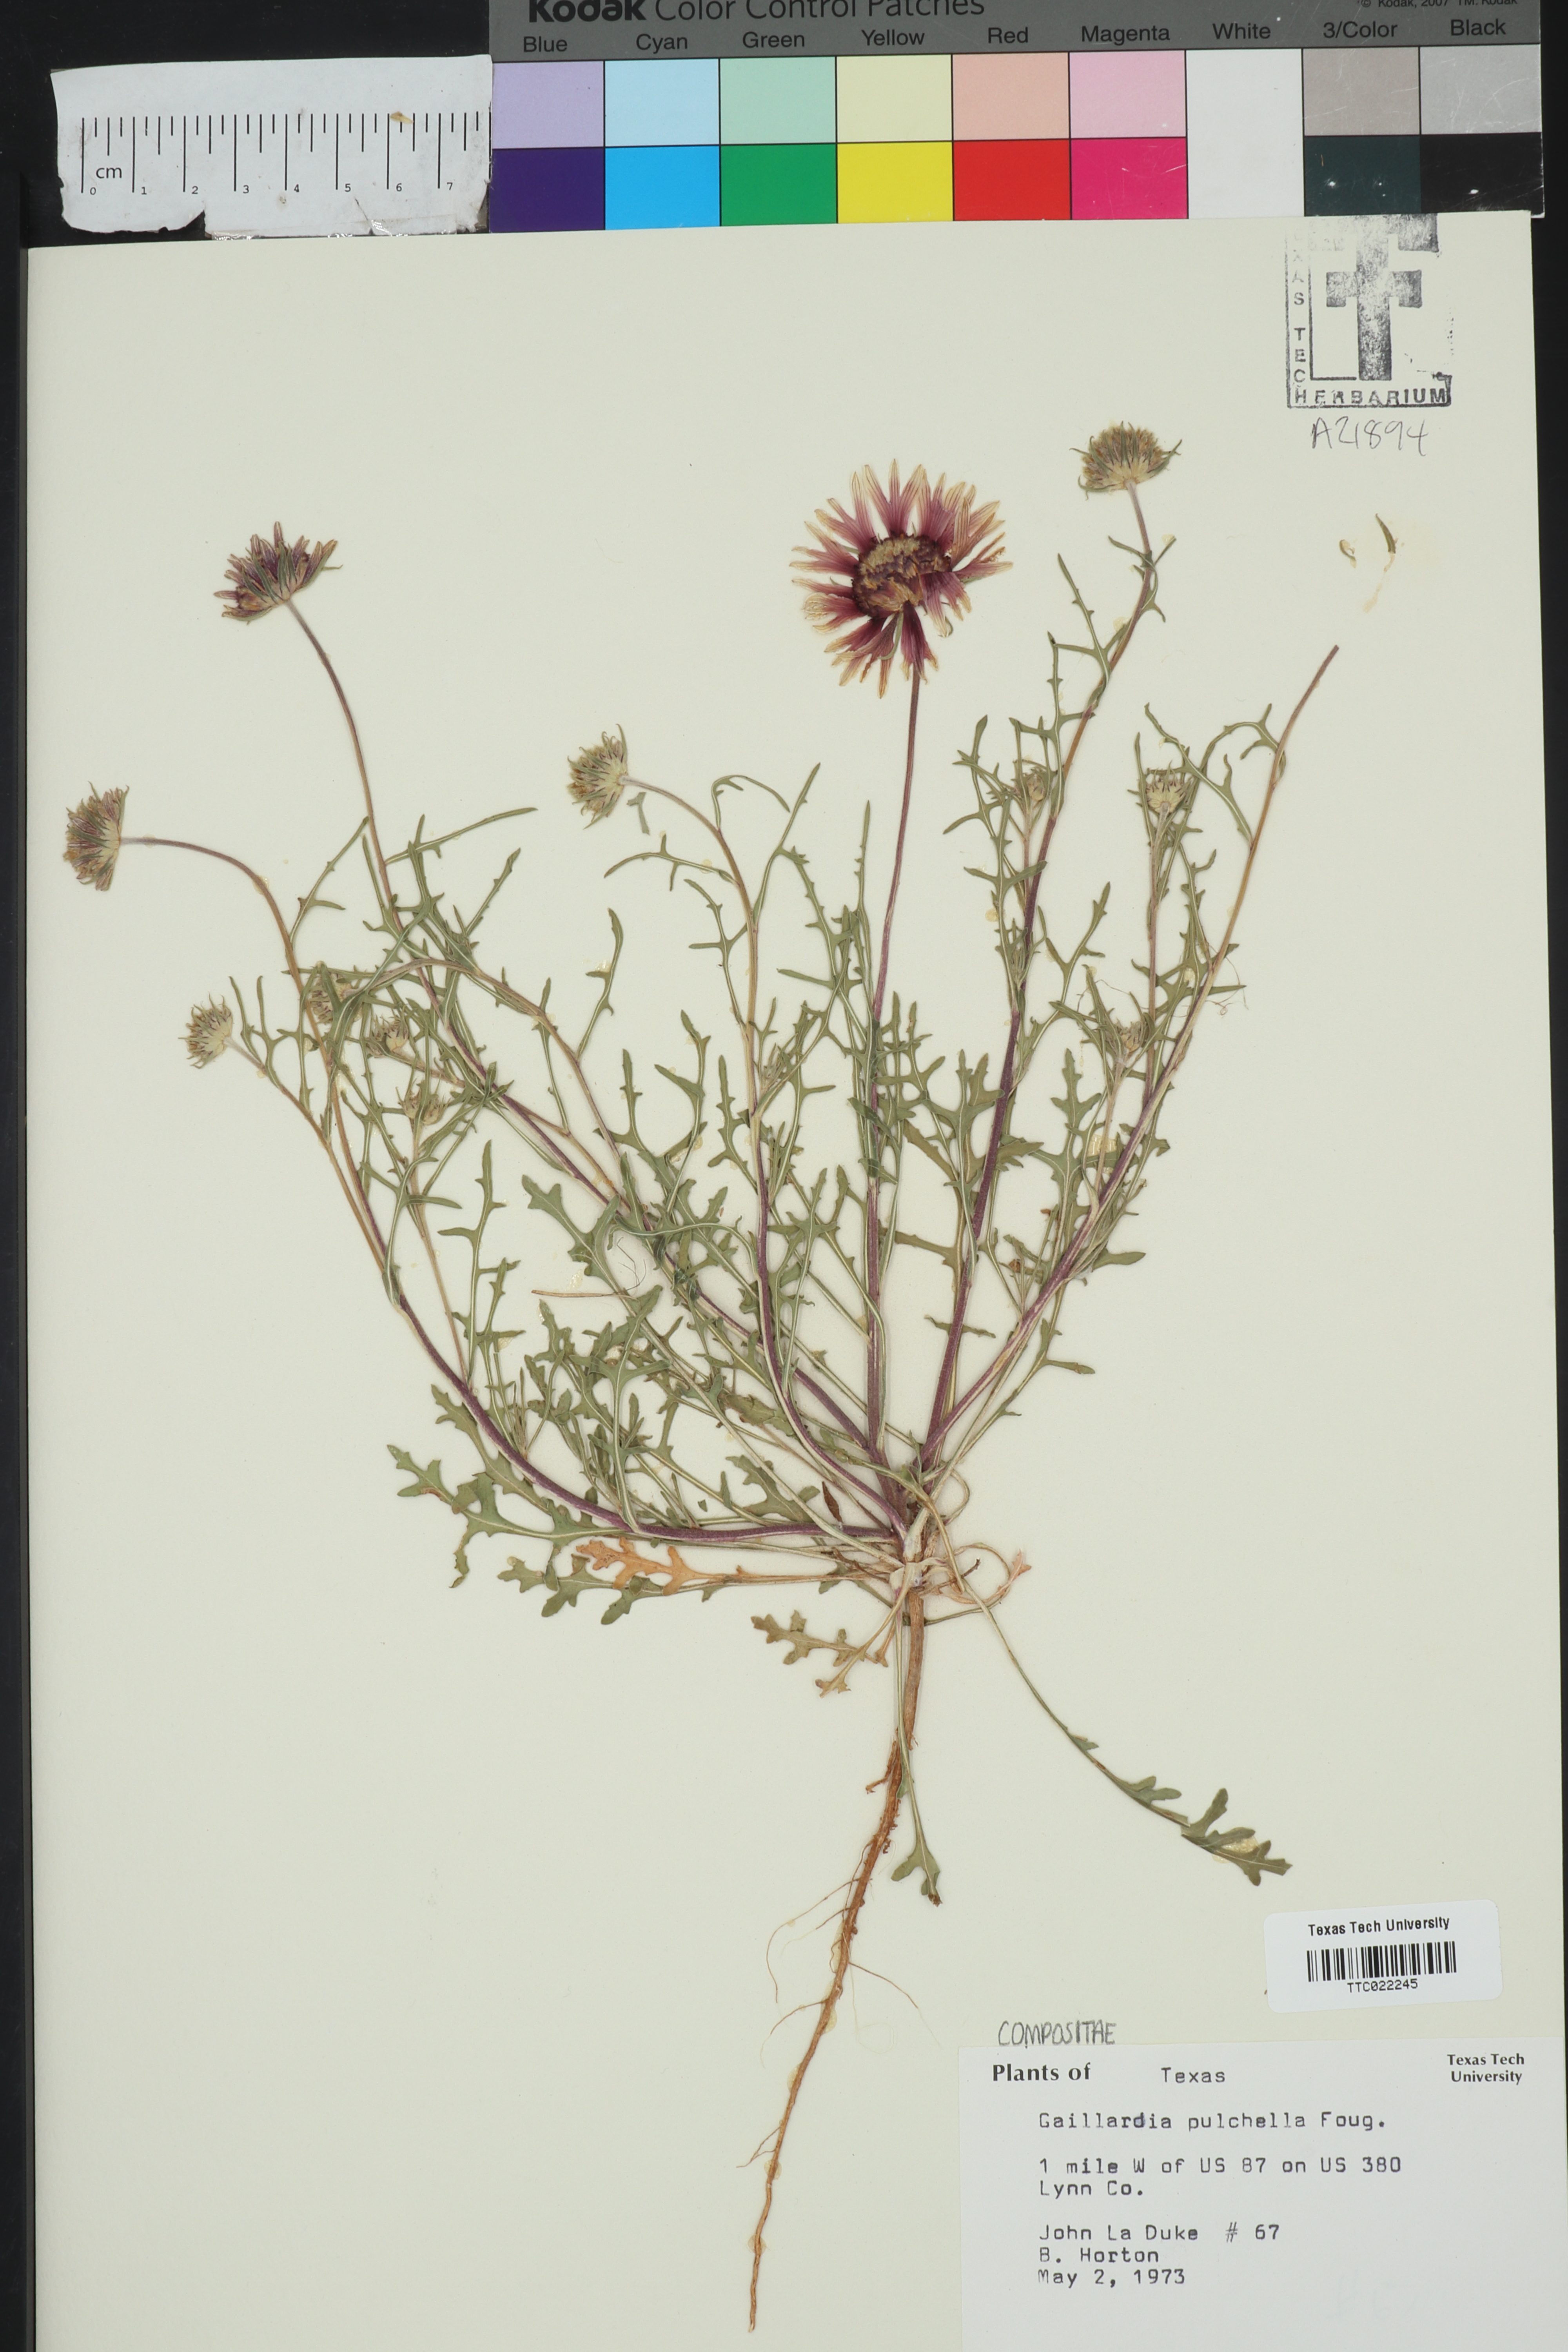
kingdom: Plantae
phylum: Tracheophyta
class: Magnoliopsida
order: Asterales
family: Asteraceae
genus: Gaillardia
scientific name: Gaillardia pulchella
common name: Firewheel
